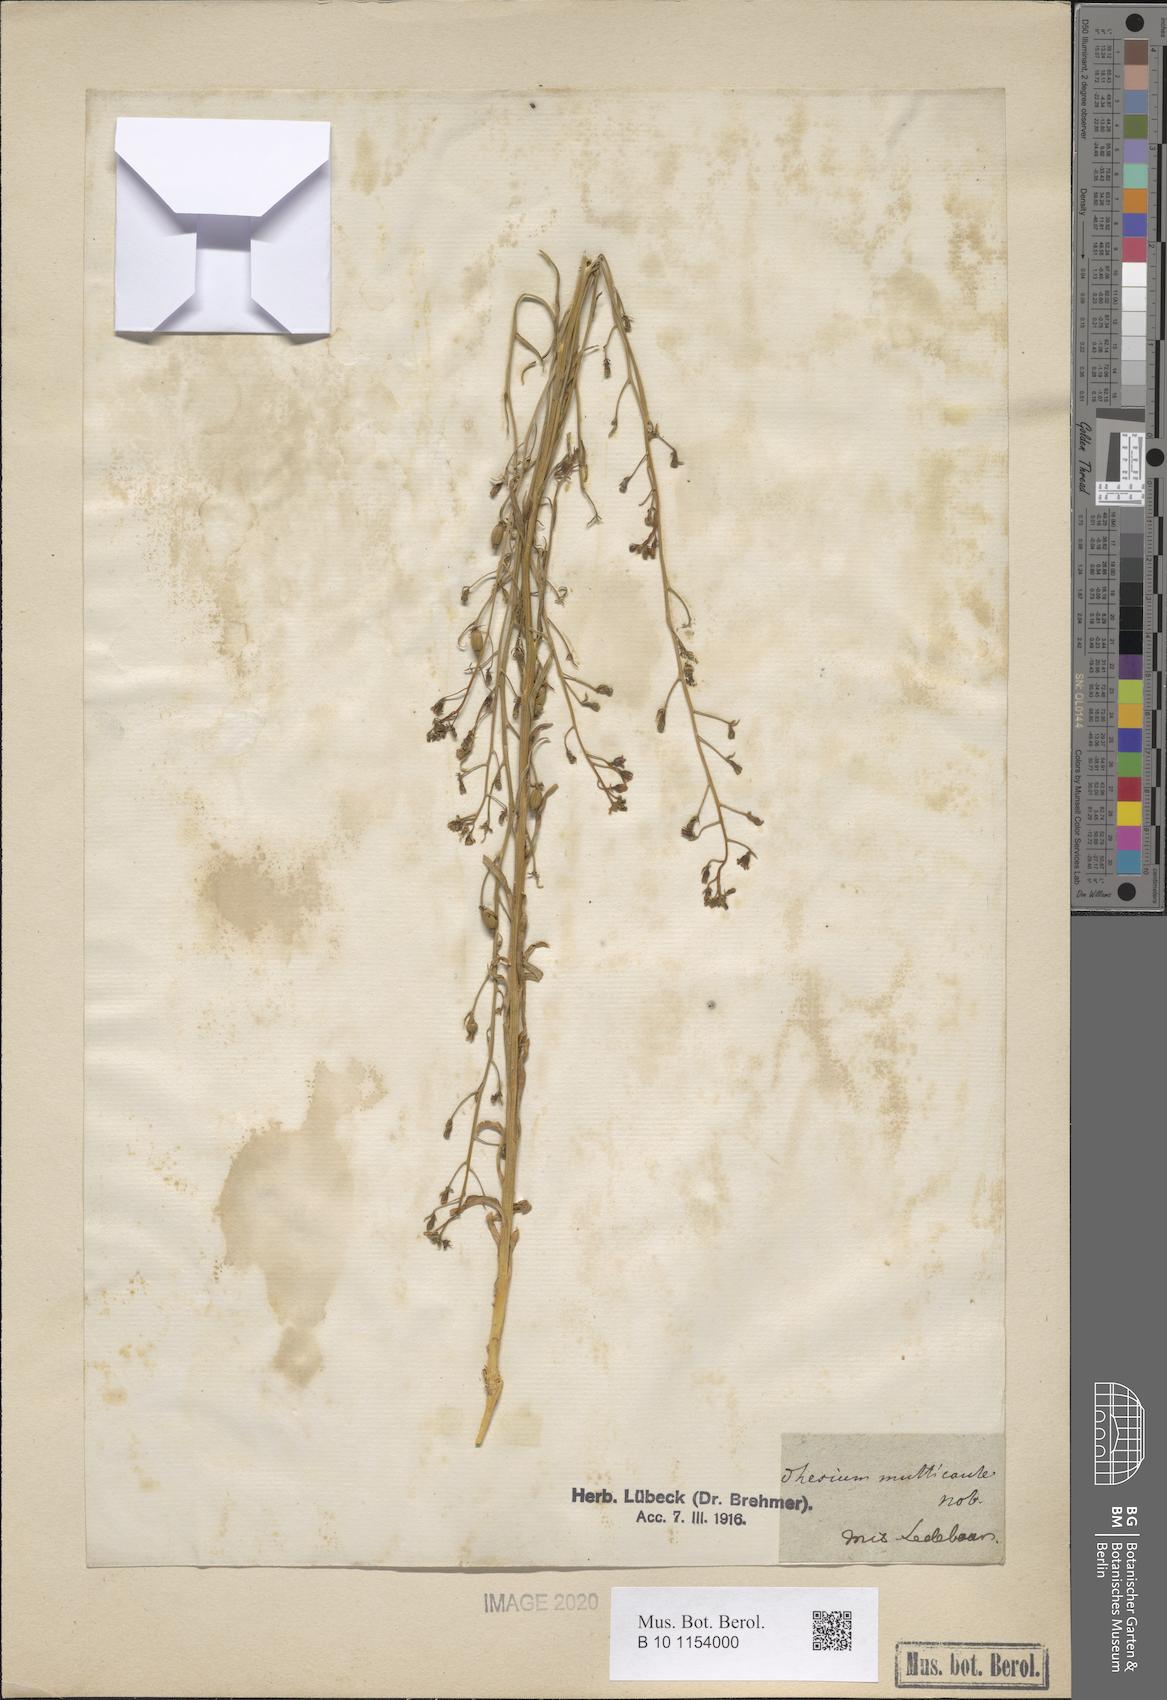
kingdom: Plantae
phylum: Tracheophyta
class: Magnoliopsida
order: Santalales
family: Thesiaceae
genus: Thesium
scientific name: Thesium multicaule
